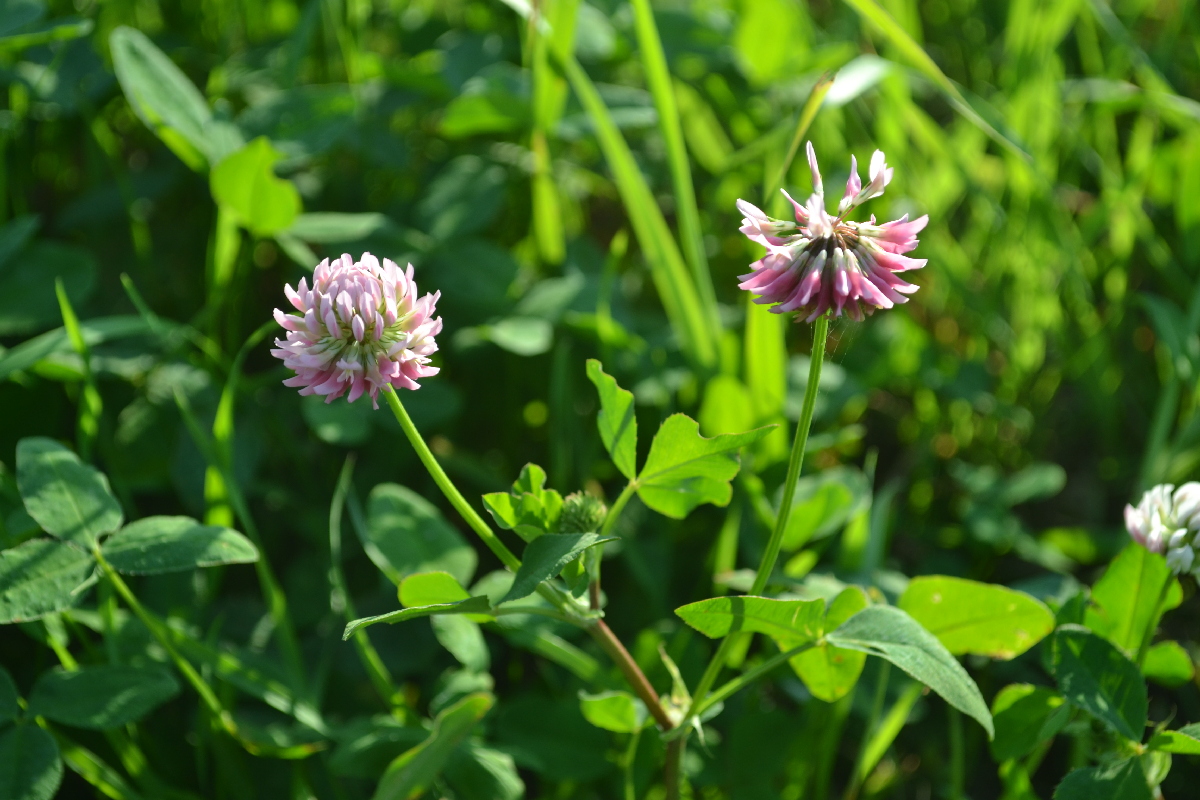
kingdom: Plantae
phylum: Tracheophyta
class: Magnoliopsida
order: Fabales
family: Fabaceae
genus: Trifolium
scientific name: Trifolium hybridum
